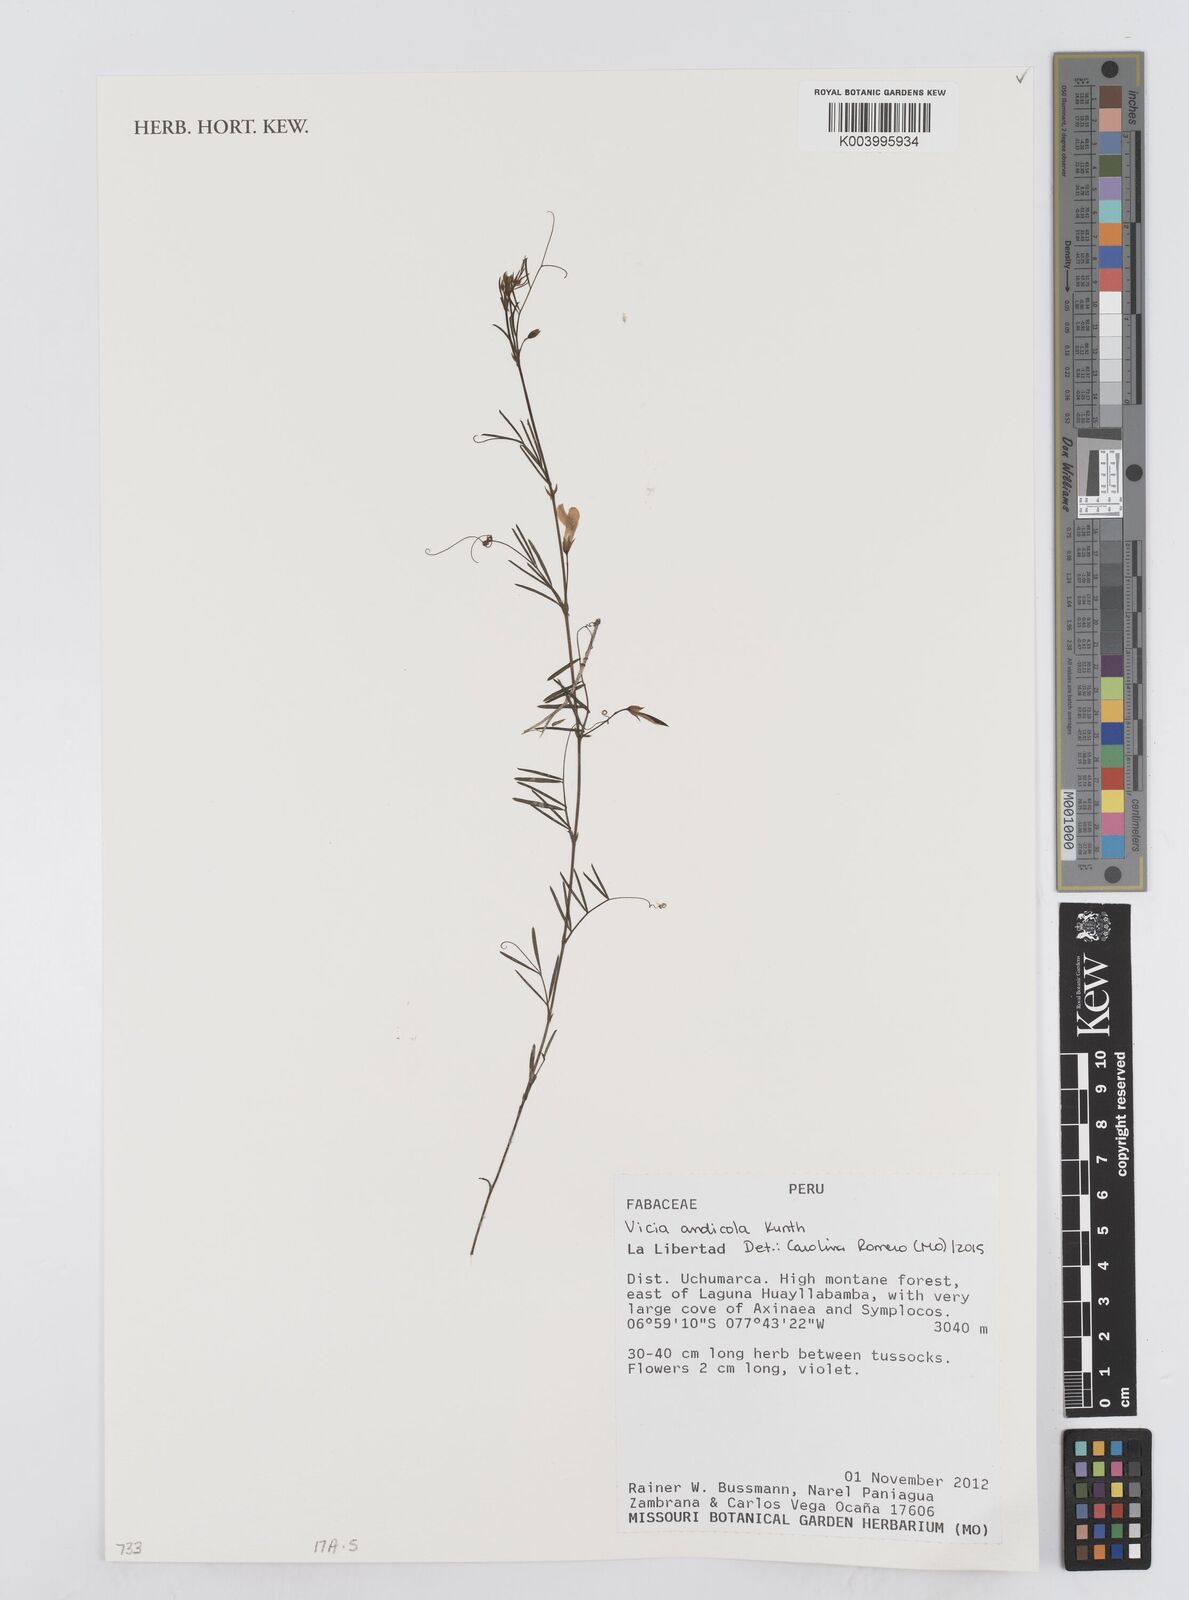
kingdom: Plantae
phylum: Tracheophyta
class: Magnoliopsida
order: Fabales
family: Fabaceae
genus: Vicia
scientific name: Vicia andicola
